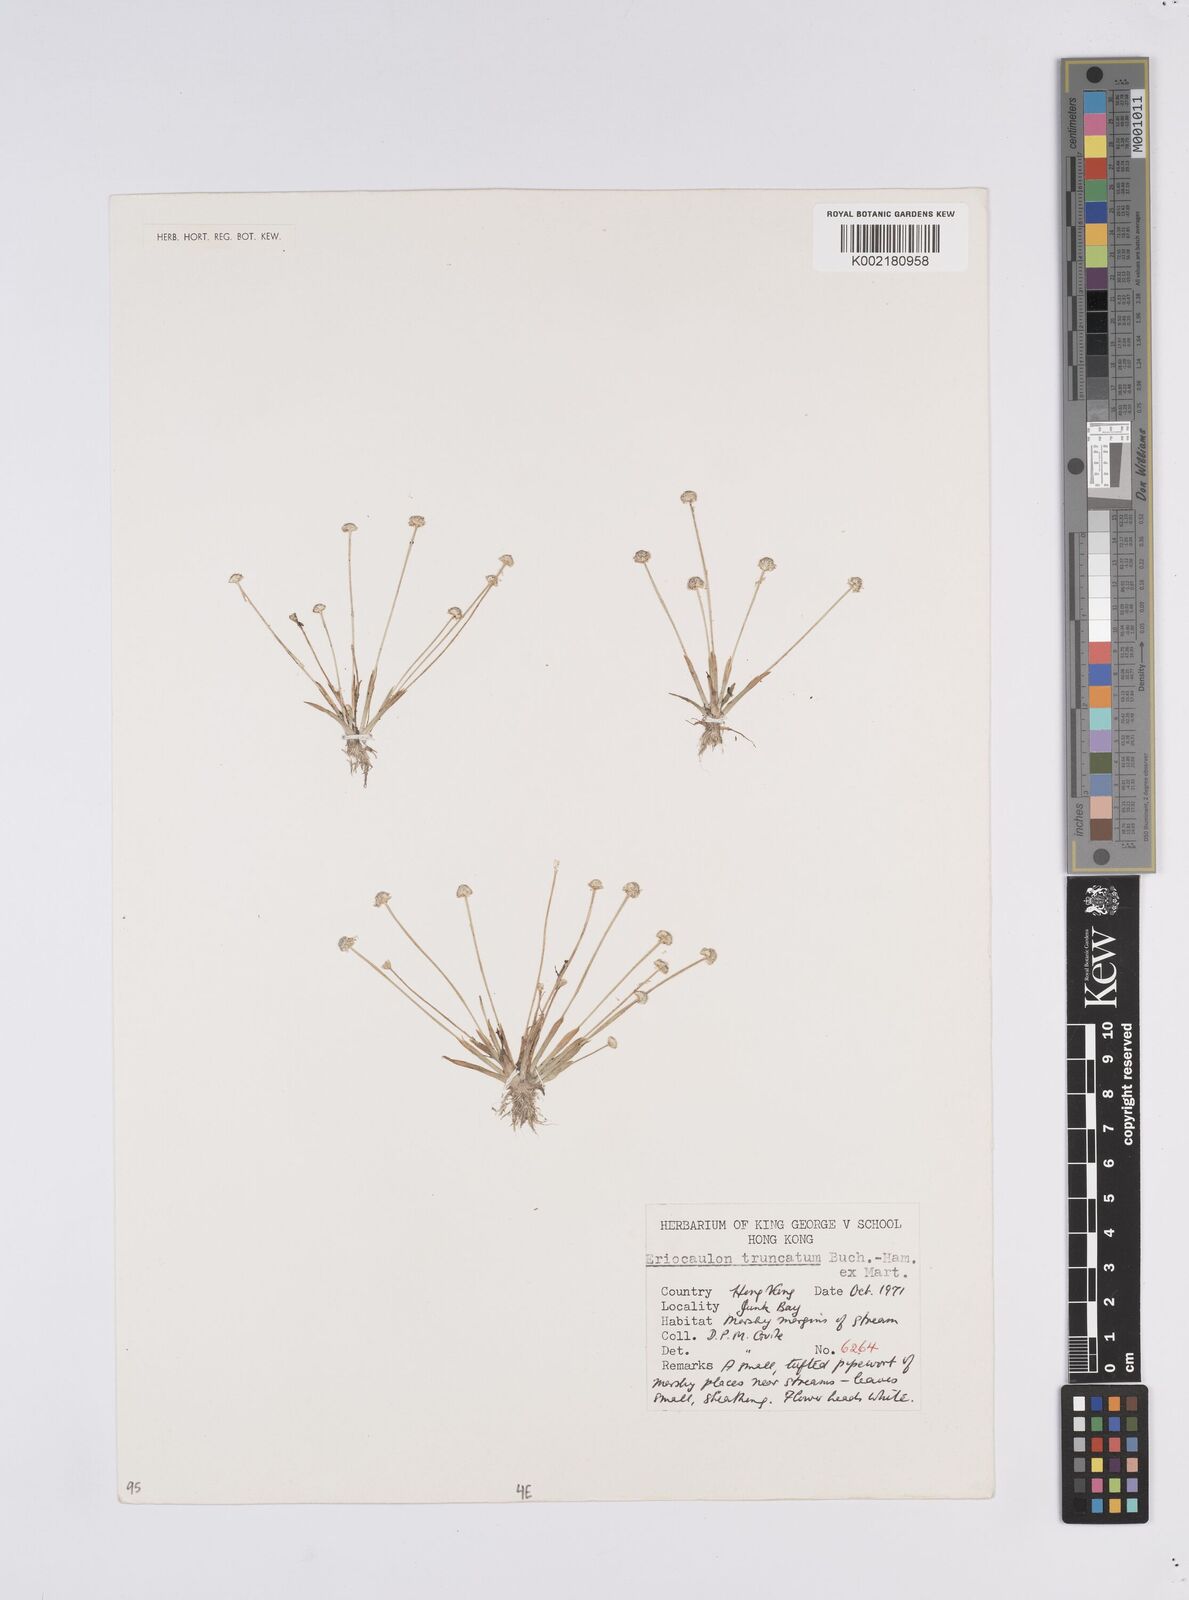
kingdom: Plantae
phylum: Tracheophyta
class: Liliopsida
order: Poales
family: Eriocaulaceae
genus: Eriocaulon
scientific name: Eriocaulon australe
